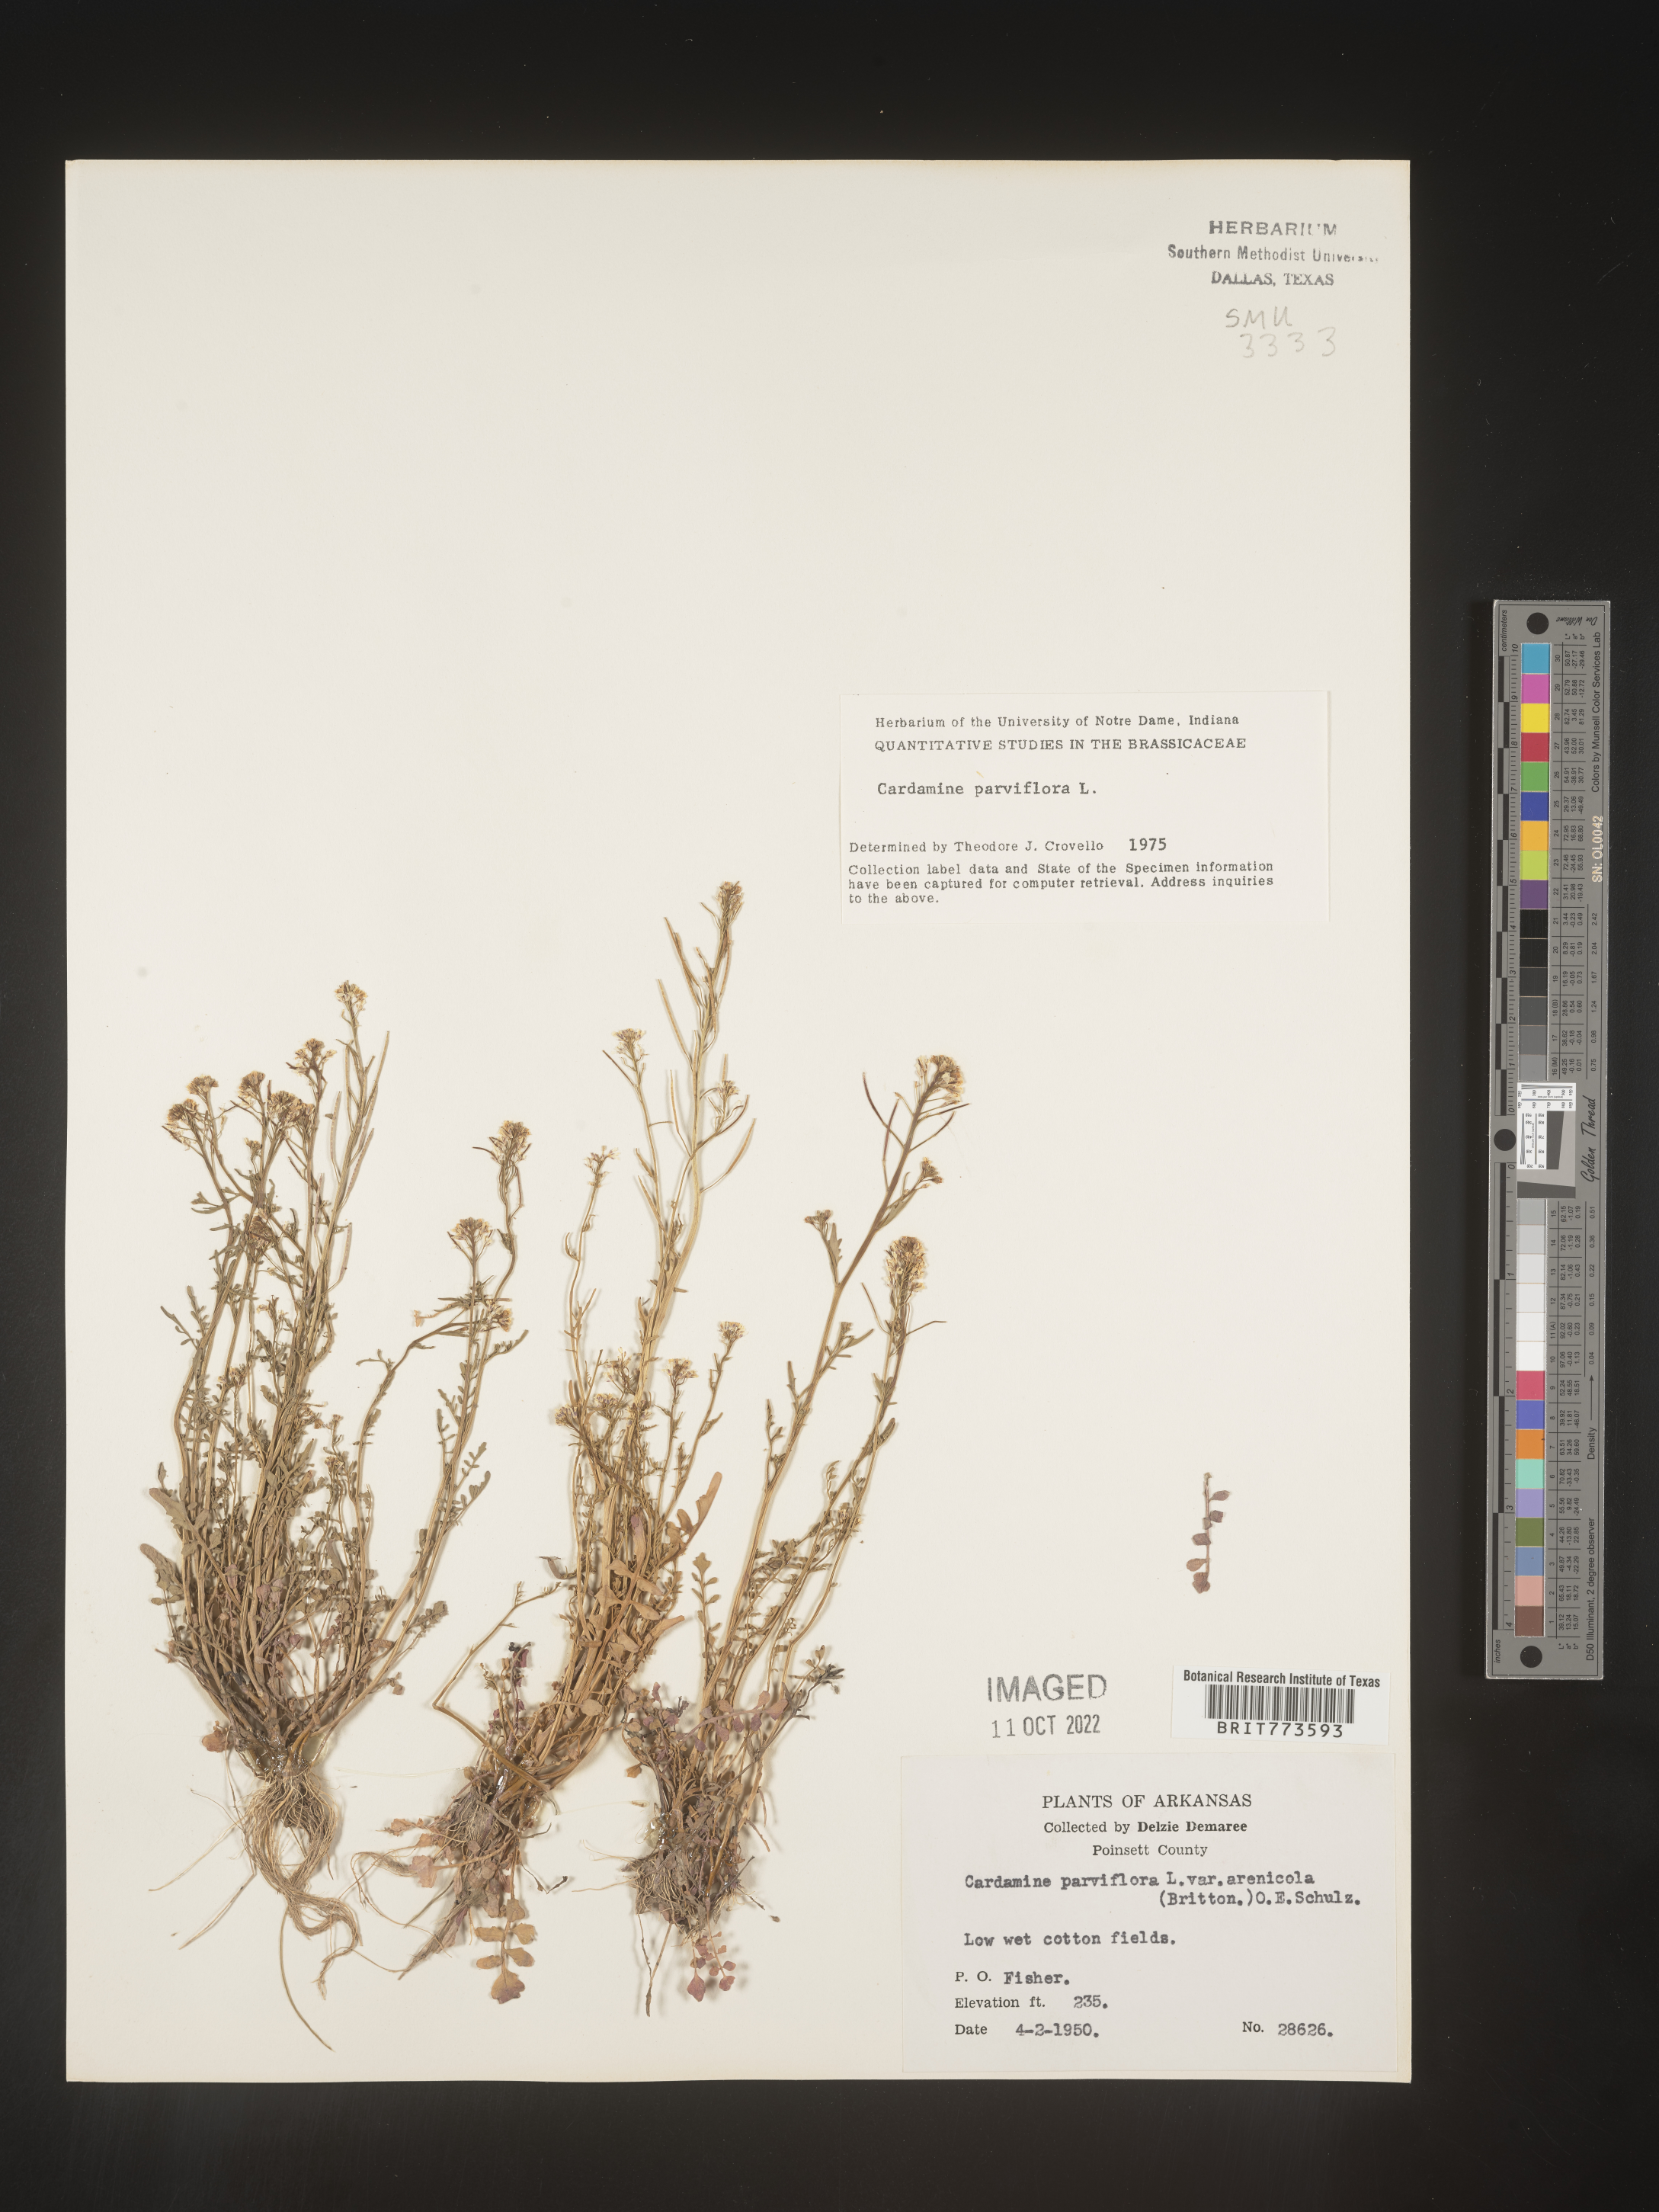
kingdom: Plantae
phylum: Tracheophyta
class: Magnoliopsida
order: Brassicales
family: Brassicaceae
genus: Cardamine
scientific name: Cardamine parviflora
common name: Sand bittercress
